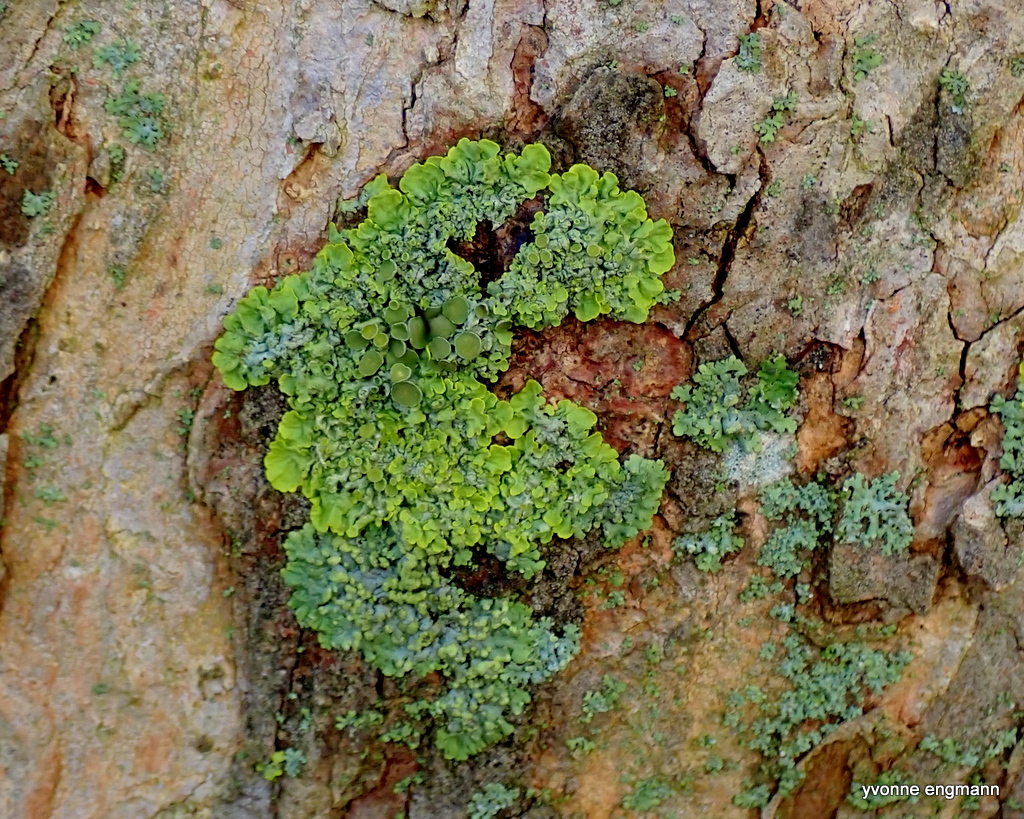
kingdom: Fungi
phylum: Ascomycota
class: Lecanoromycetes
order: Teloschistales
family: Teloschistaceae
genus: Xanthoria
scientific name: Xanthoria parietina
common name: almindelig væggelav
